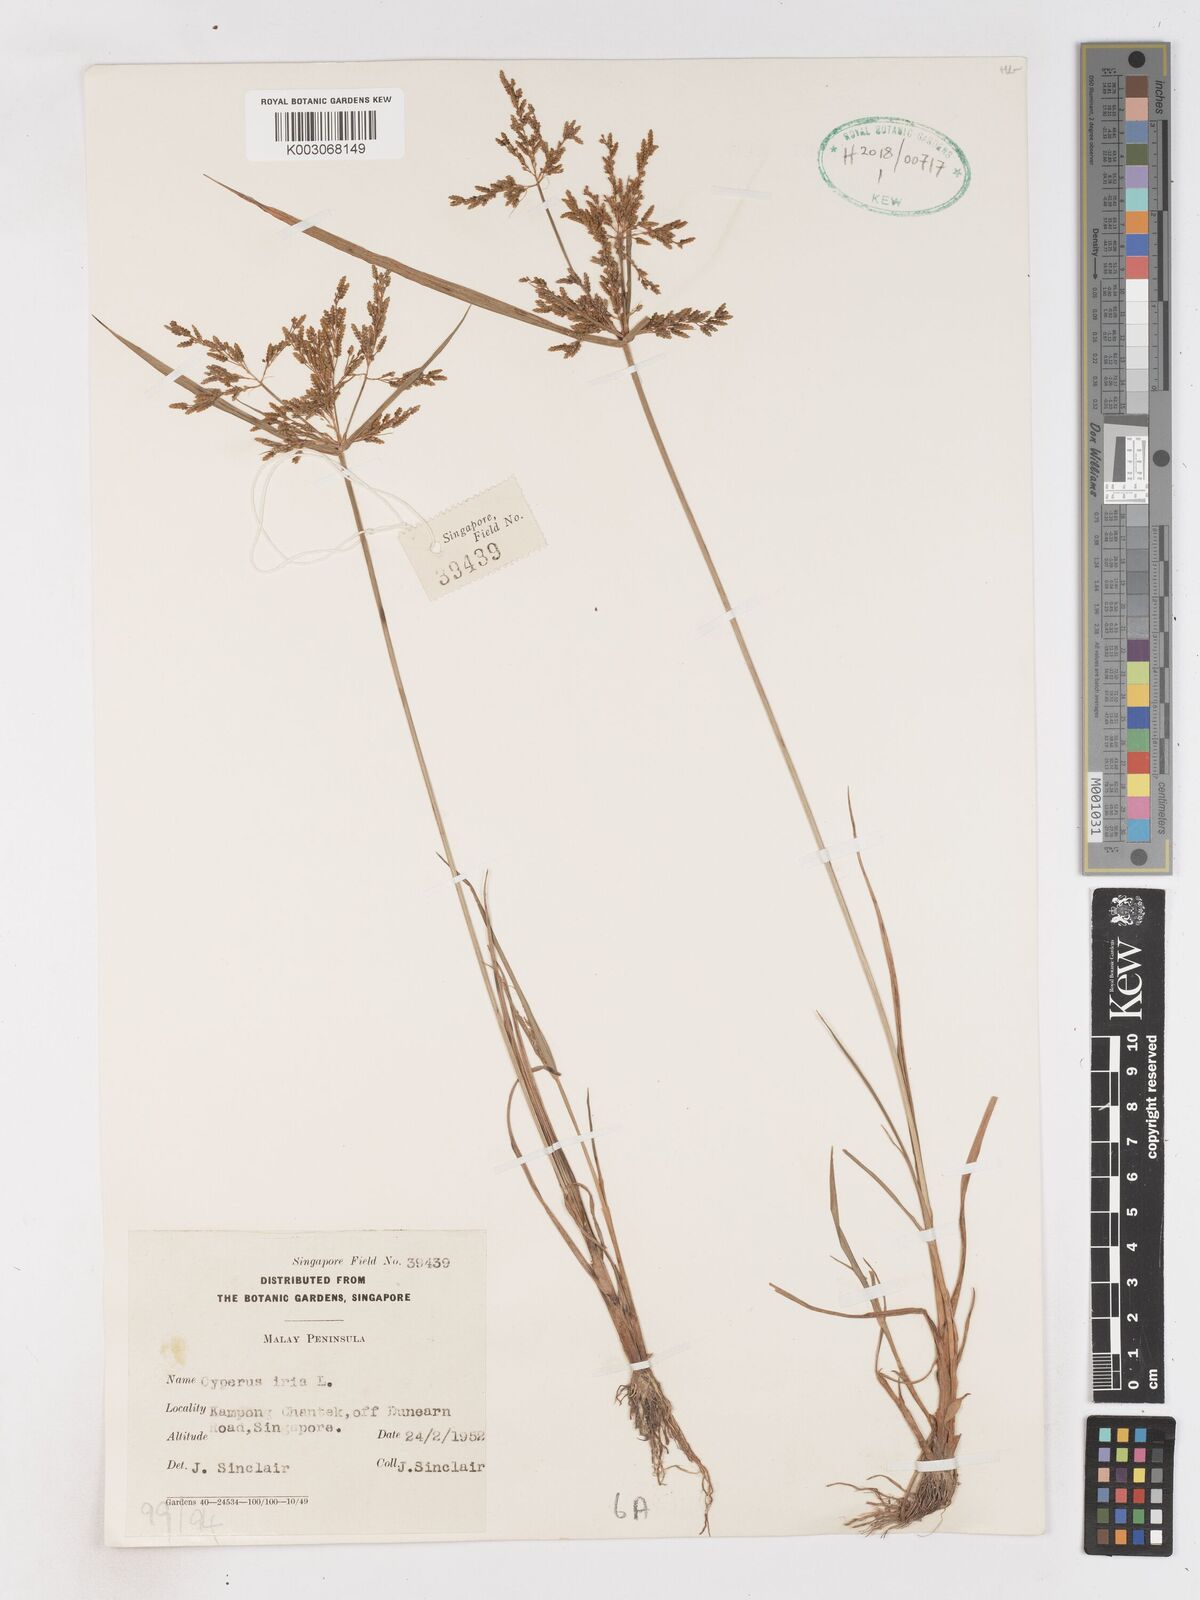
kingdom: Plantae
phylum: Tracheophyta
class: Liliopsida
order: Poales
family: Cyperaceae
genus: Cyperus
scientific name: Cyperus iria
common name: Ricefield flatsedge
